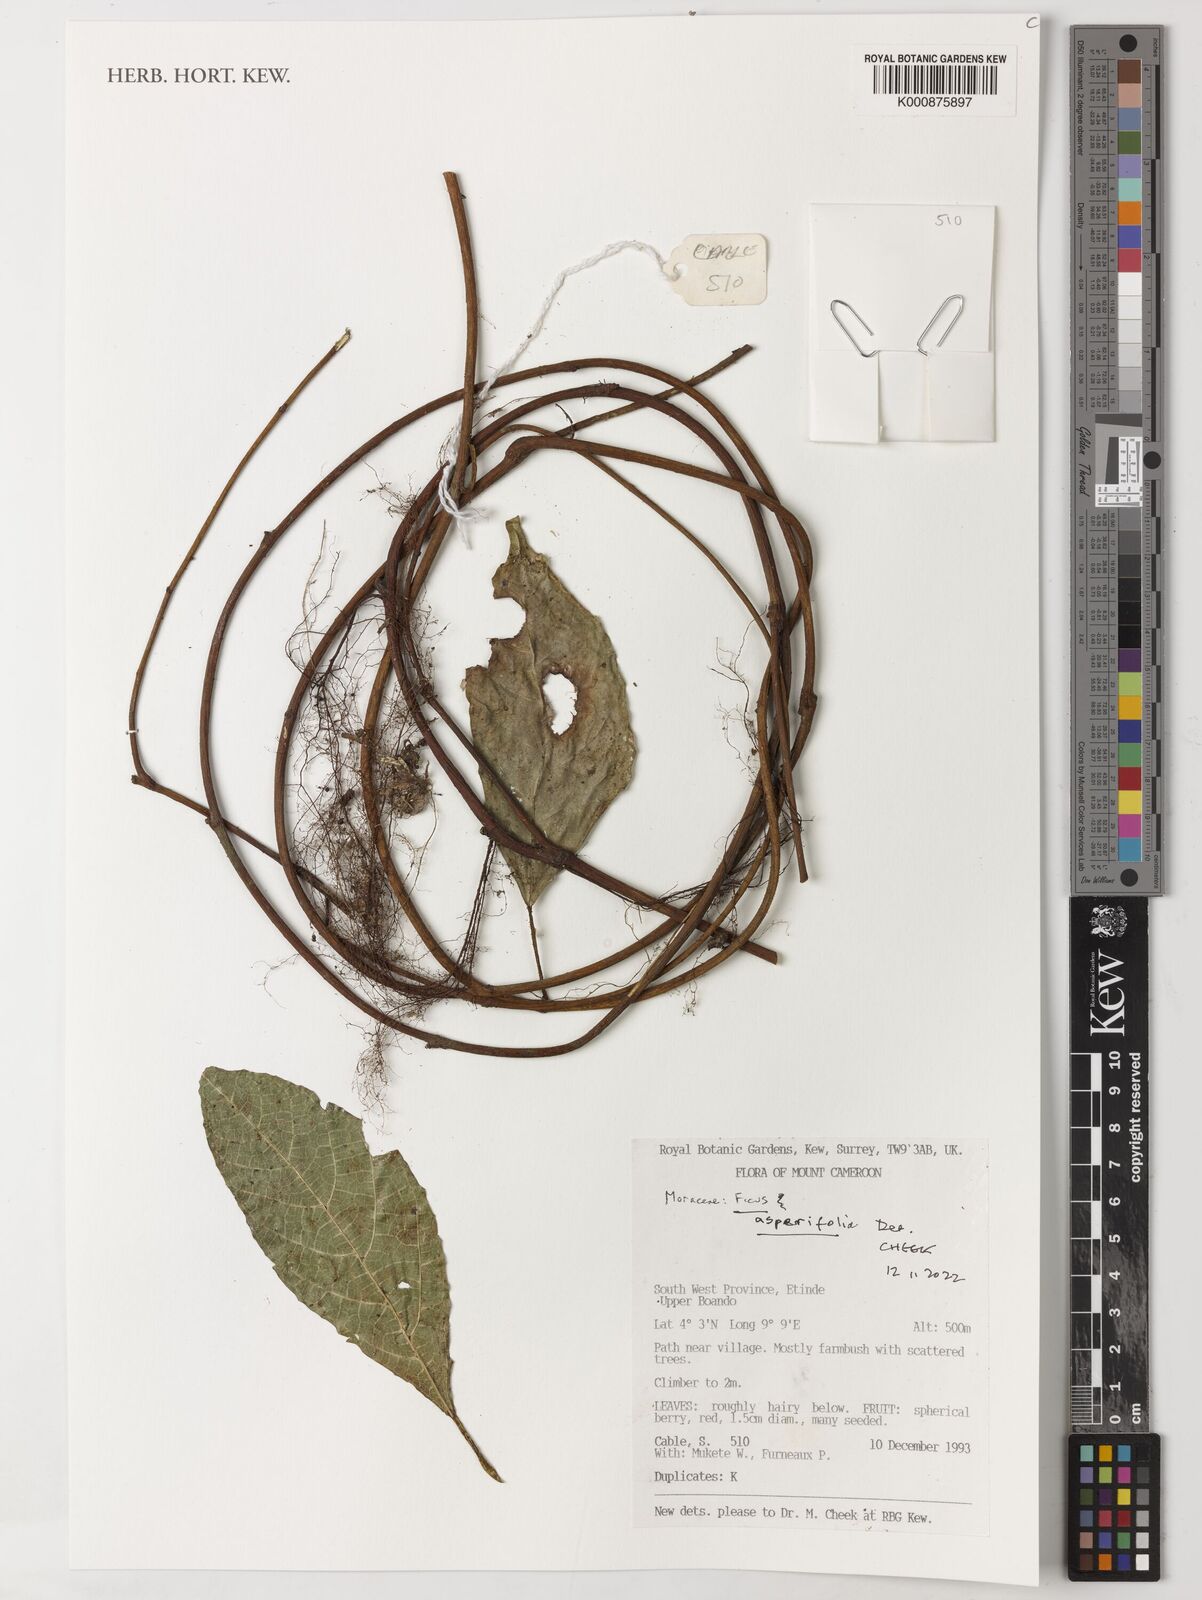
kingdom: Plantae
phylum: Tracheophyta
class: Magnoliopsida
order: Rosales
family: Moraceae
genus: Ficus
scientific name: Ficus asperifolia
